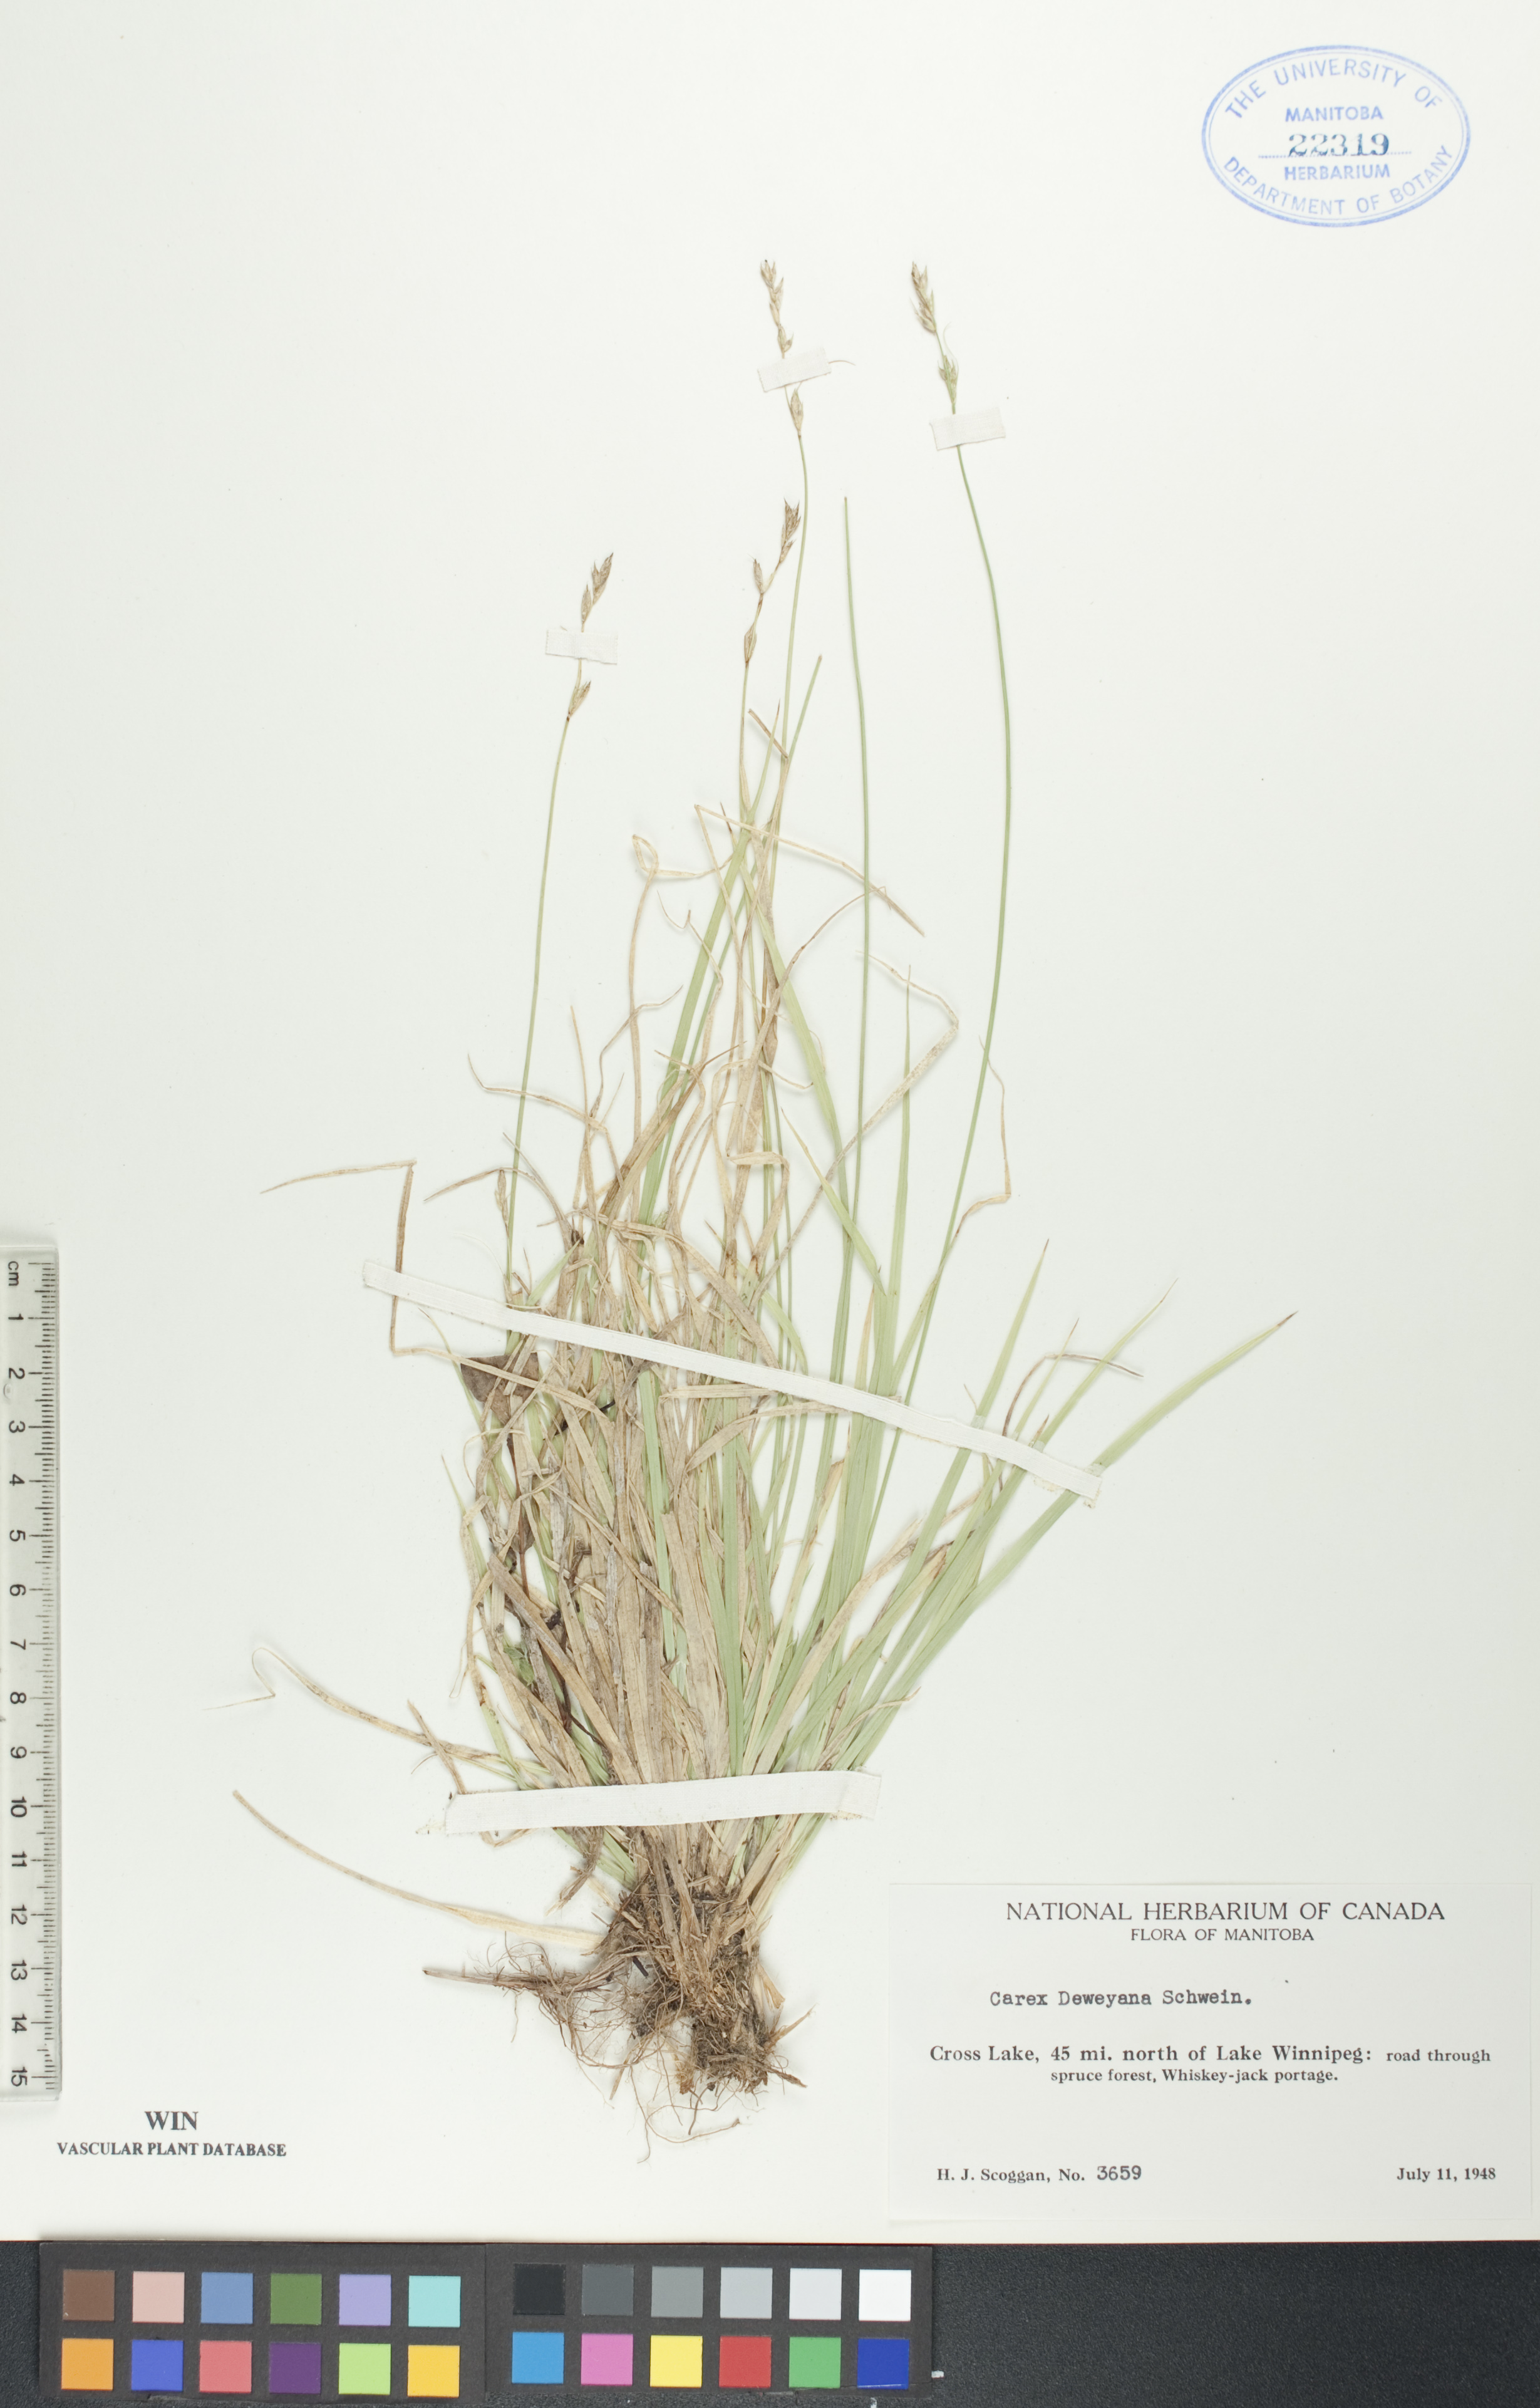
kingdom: Plantae
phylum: Tracheophyta
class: Liliopsida
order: Poales
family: Cyperaceae
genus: Carex
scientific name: Carex deweyana
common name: Dewey's sedge
